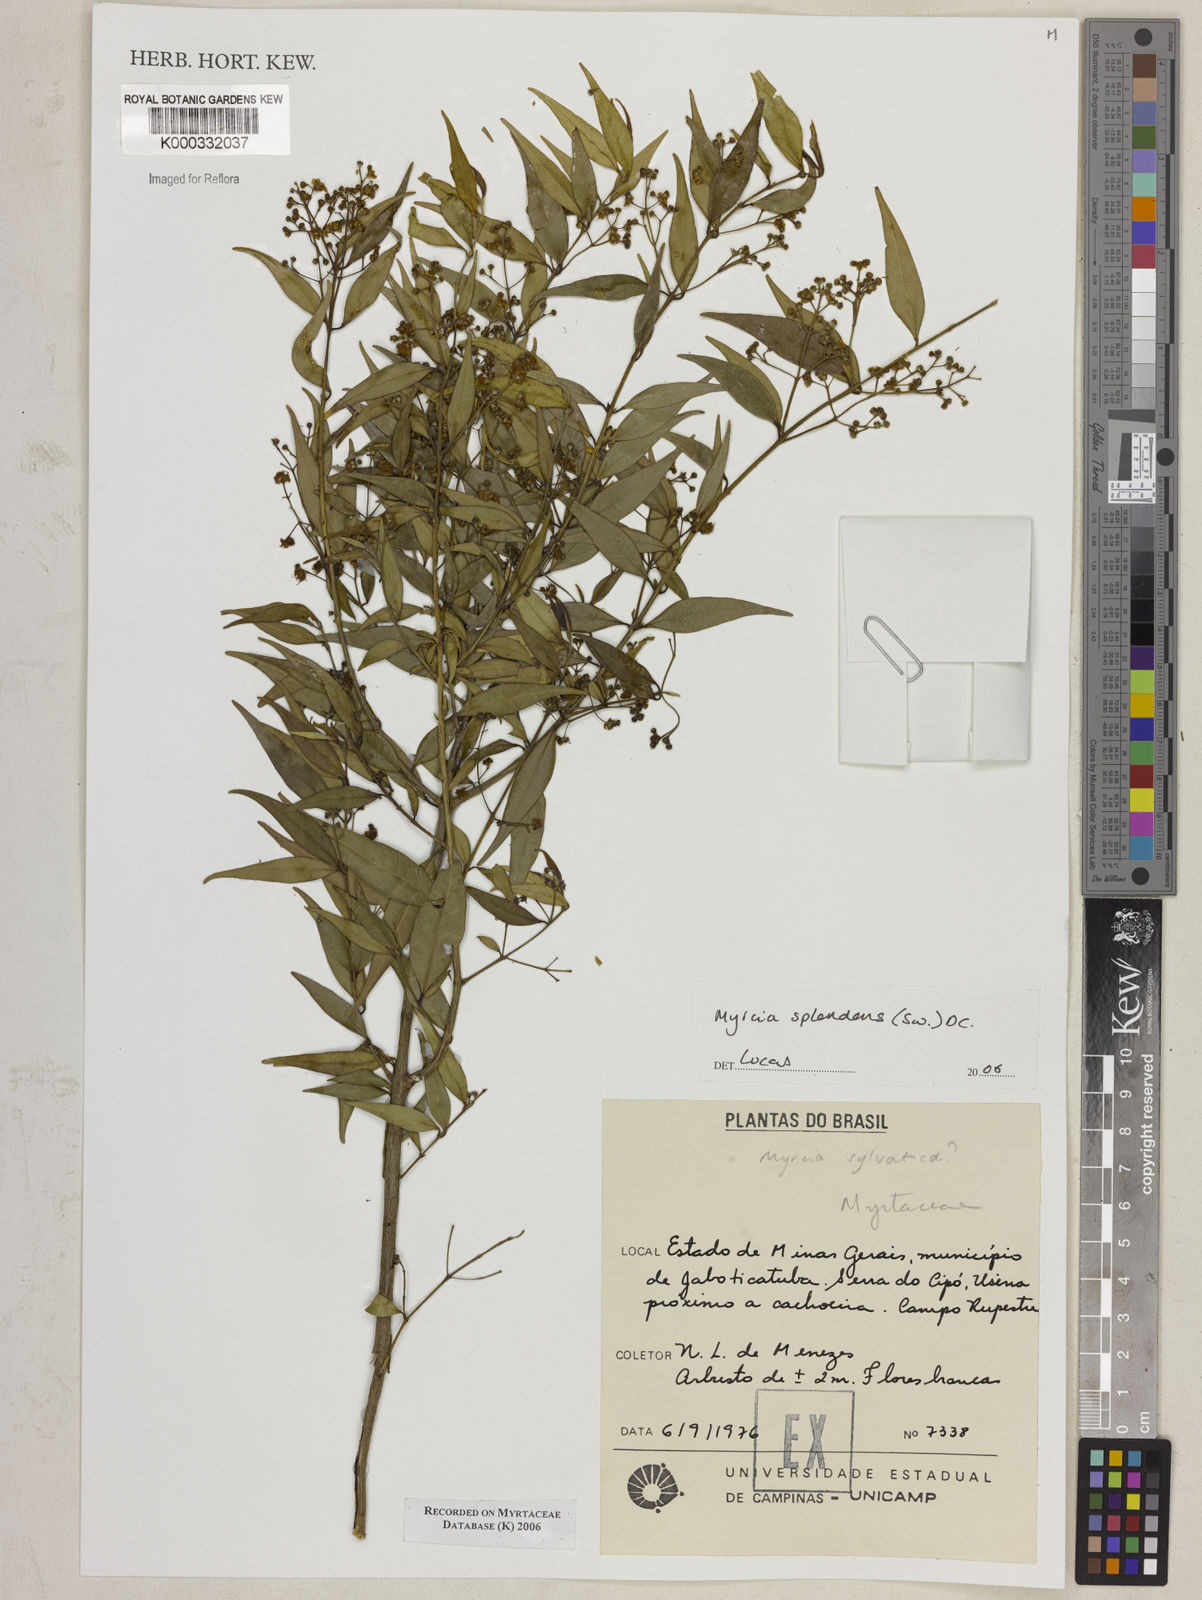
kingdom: Plantae
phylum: Tracheophyta
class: Magnoliopsida
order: Myrtales
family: Myrtaceae
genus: Myrcia
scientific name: Myrcia splendens
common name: Surinam cherry
